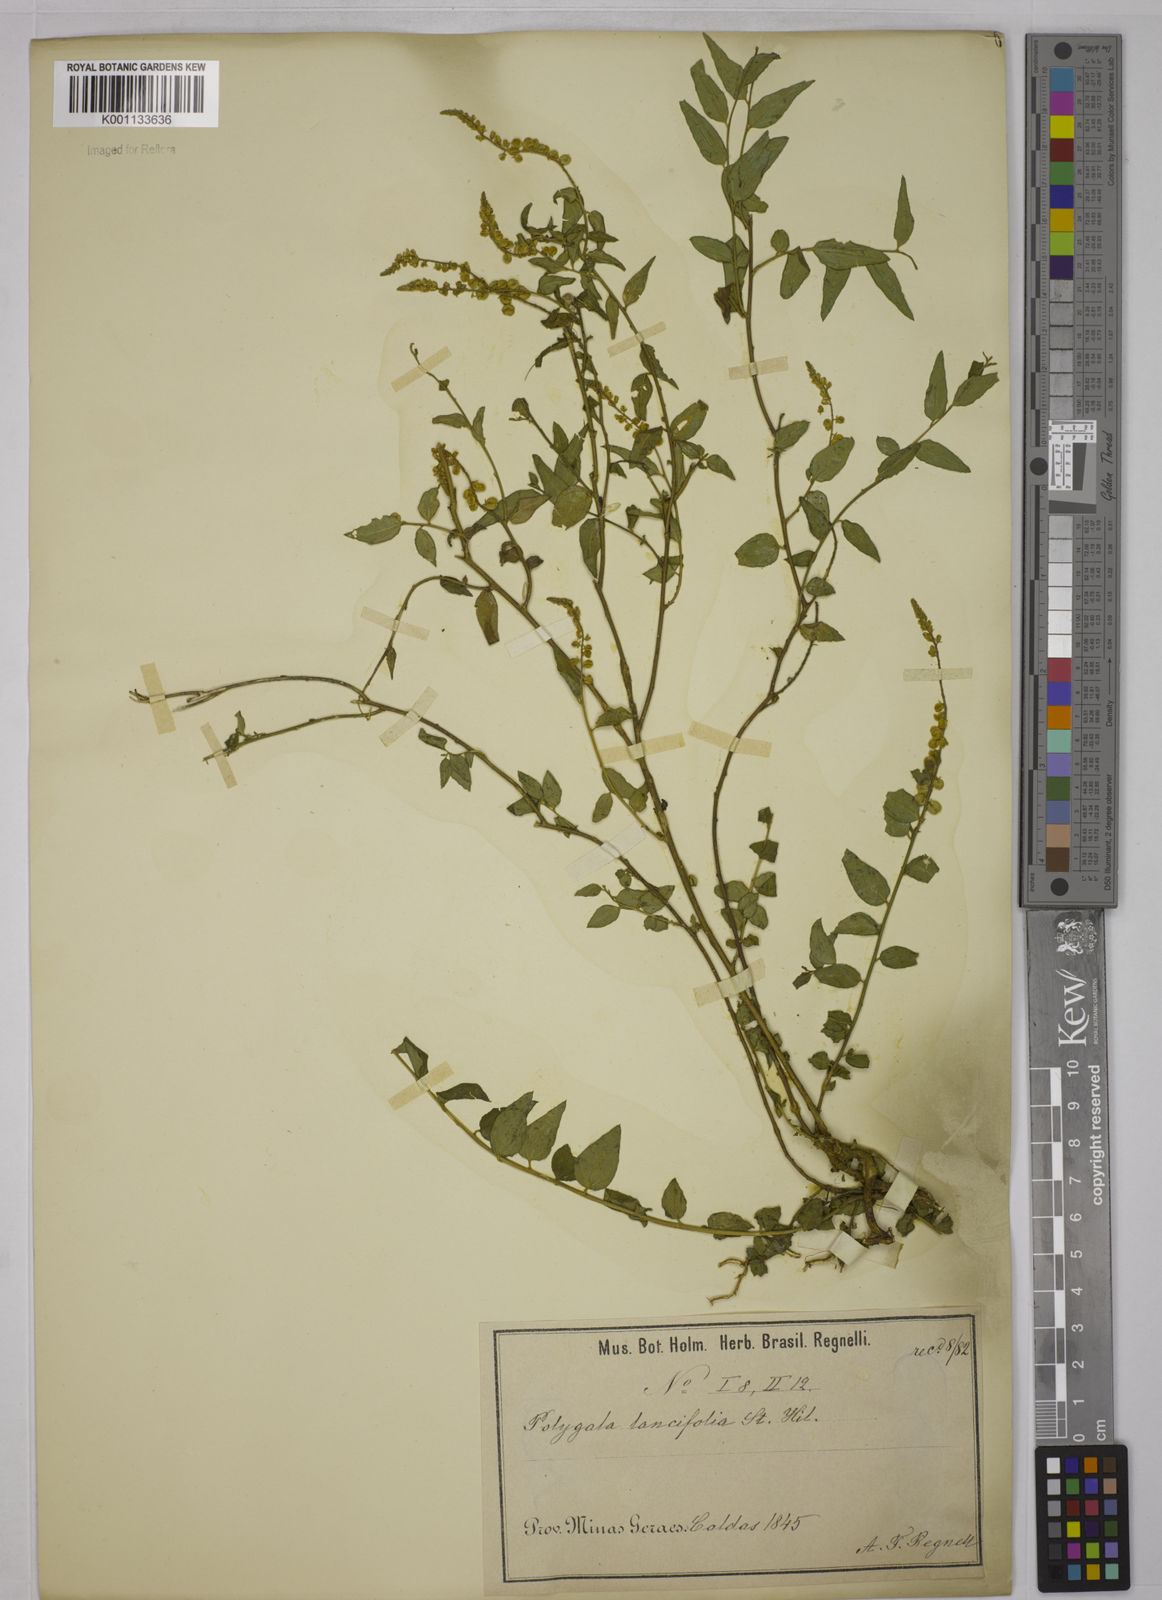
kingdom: Plantae
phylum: Tracheophyta
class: Magnoliopsida
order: Fabales
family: Polygalaceae
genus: Polygala
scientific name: Polygala lancifolia
